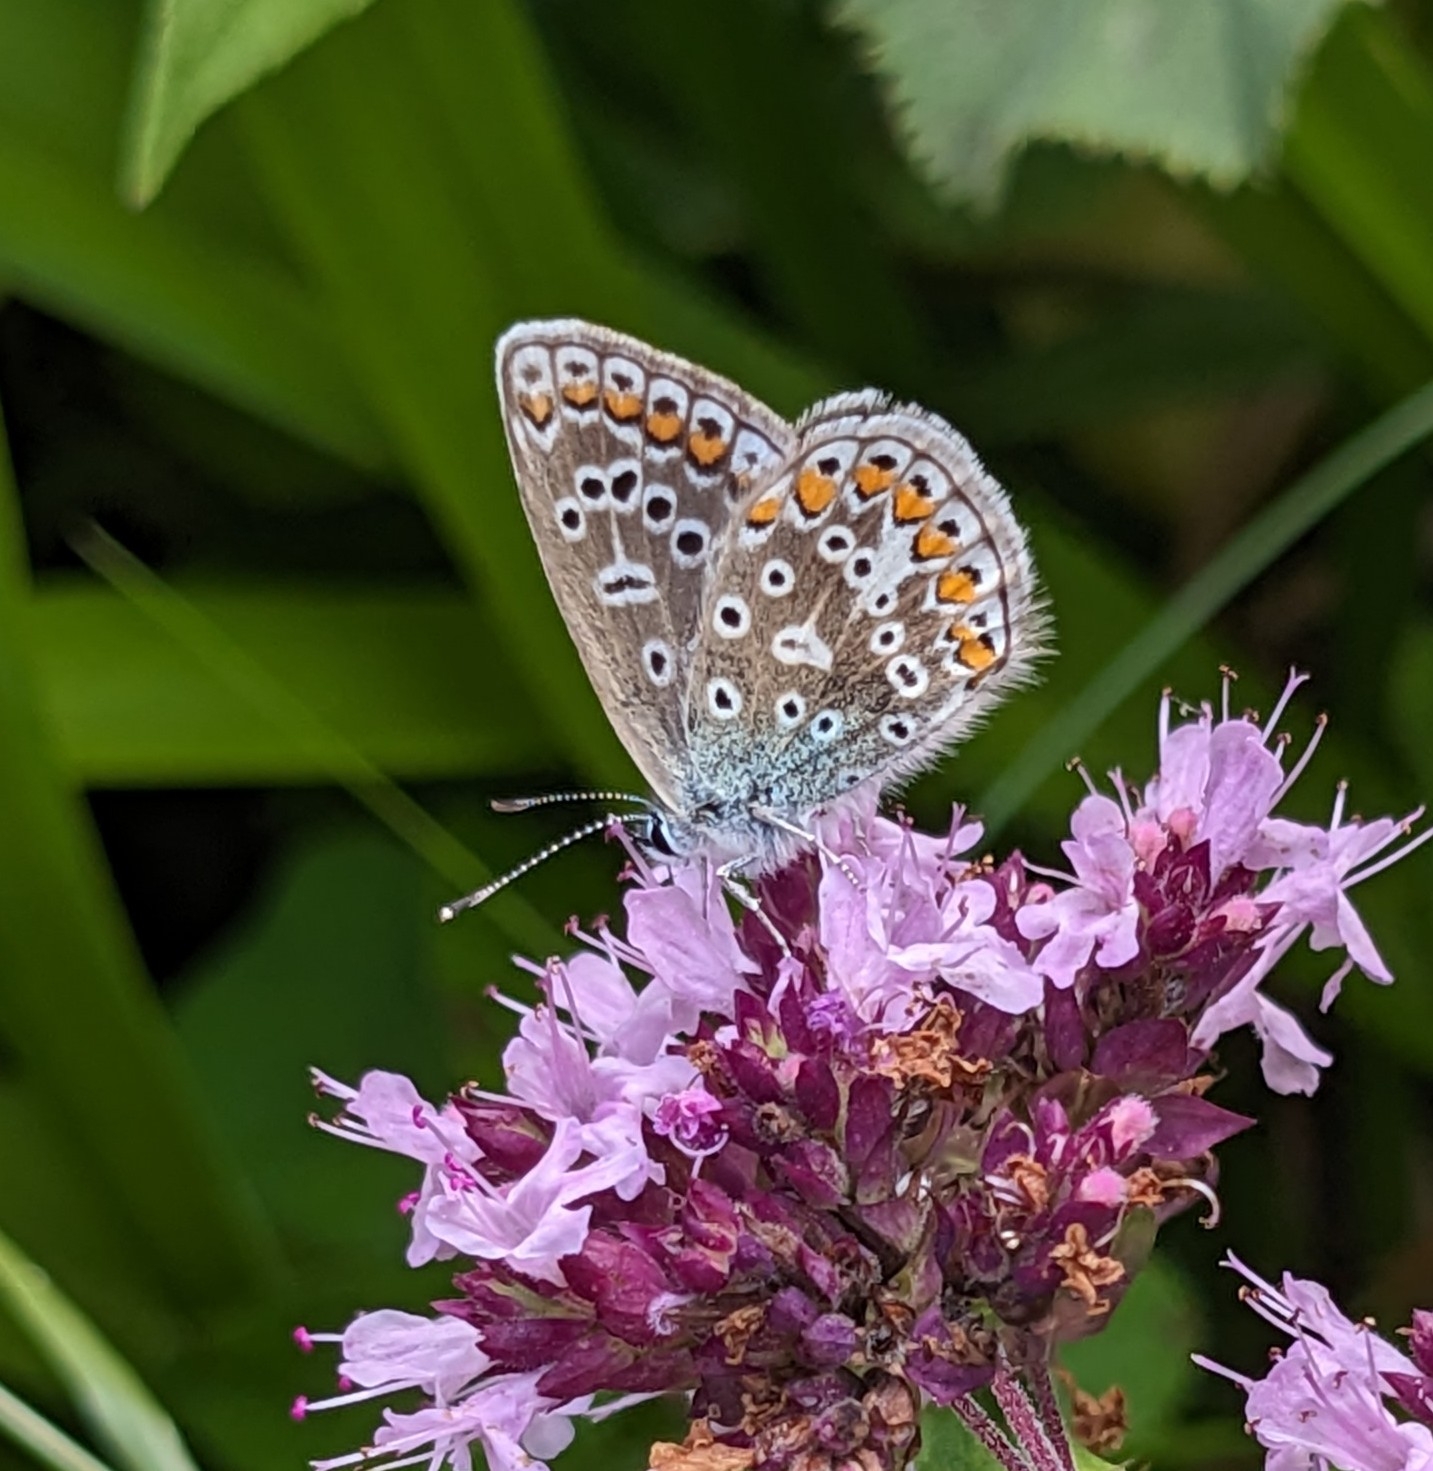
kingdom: Animalia
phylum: Arthropoda
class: Insecta
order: Lepidoptera
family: Lycaenidae
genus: Polyommatus
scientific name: Polyommatus icarus
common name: Almindelig blåfugl
